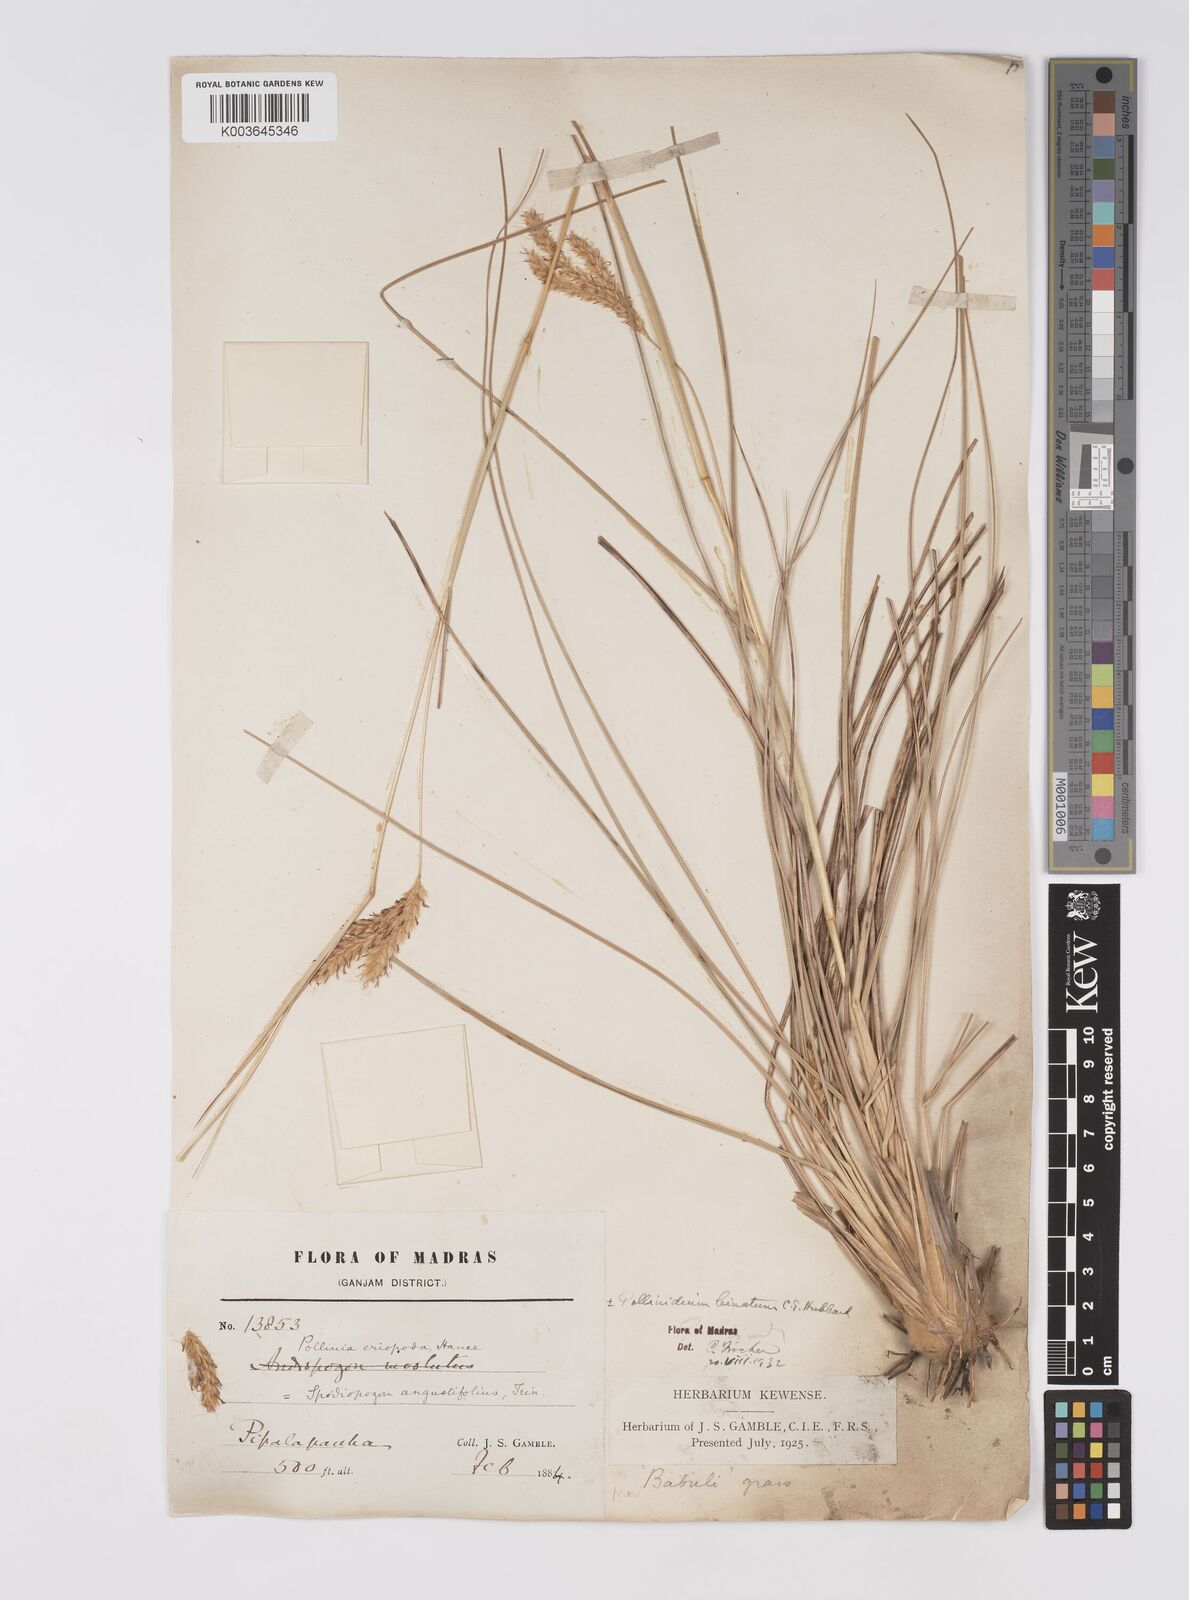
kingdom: Plantae
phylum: Tracheophyta
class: Liliopsida
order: Poales
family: Poaceae
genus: Eulaliopsis
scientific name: Eulaliopsis binata
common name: Baib grass
